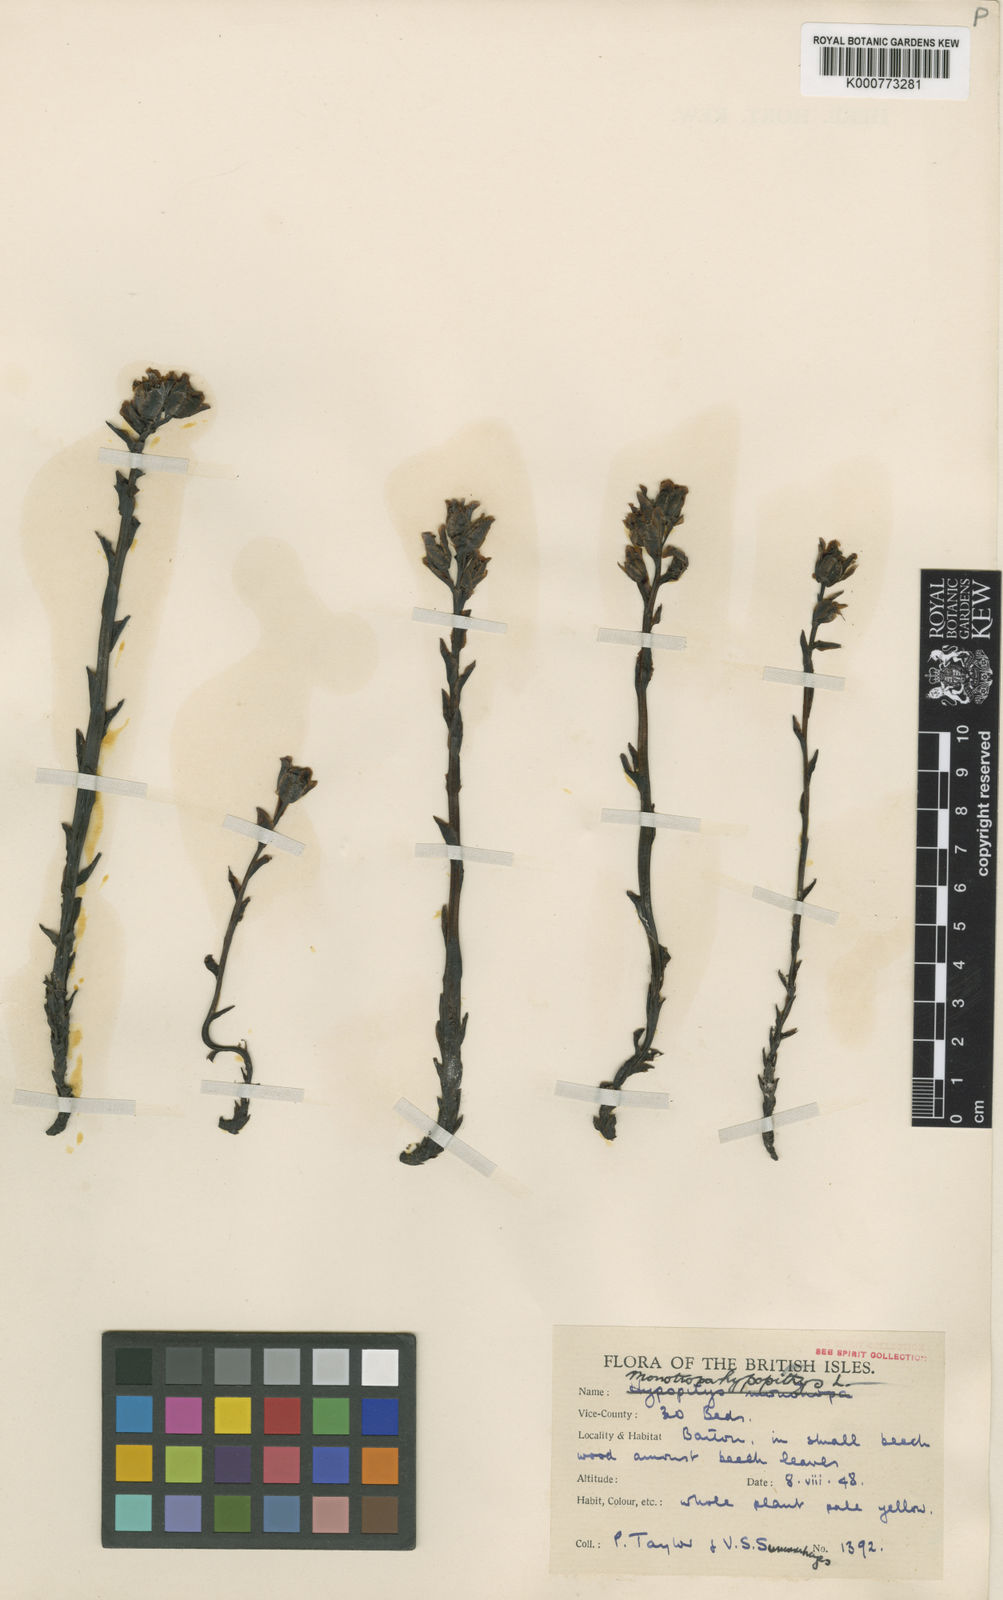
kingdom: Plantae
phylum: Tracheophyta
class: Magnoliopsida
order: Ericales
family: Ericaceae
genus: Monotropa
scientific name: Monotropa
